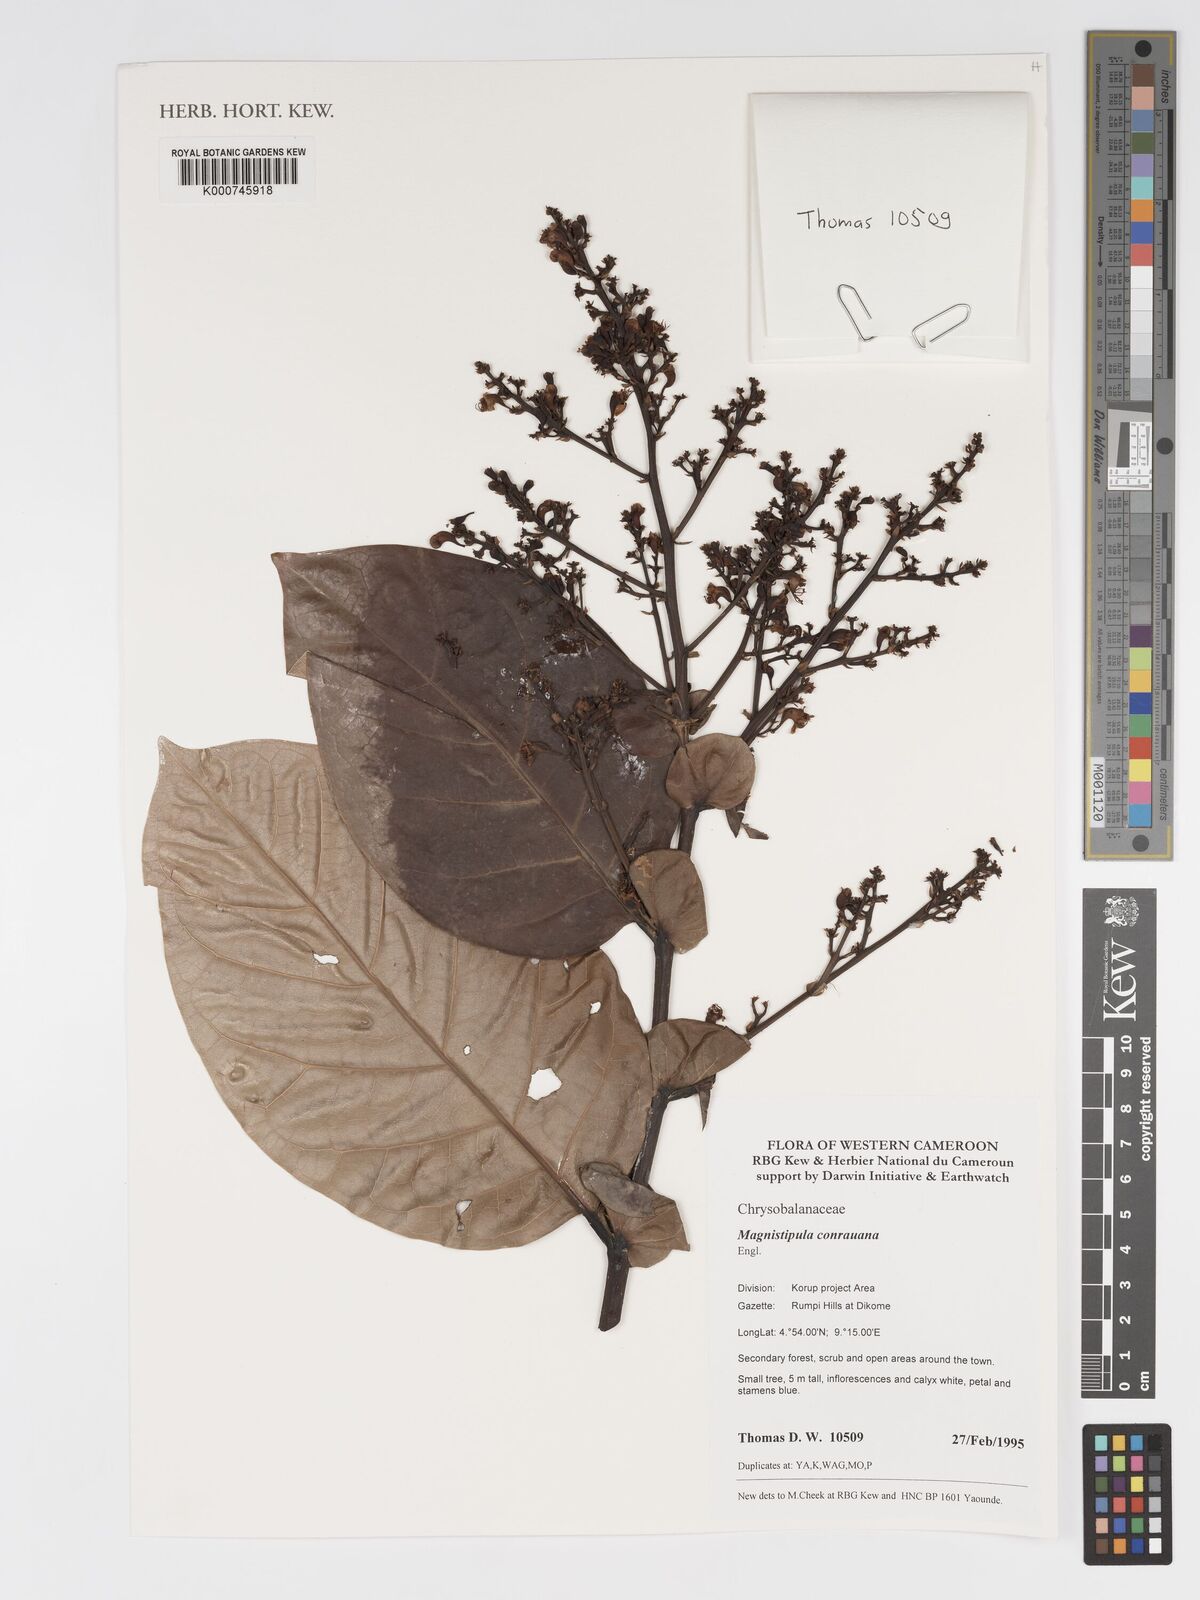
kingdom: Plantae
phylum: Tracheophyta
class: Magnoliopsida
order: Malpighiales
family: Chrysobalanaceae
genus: Magnistipula
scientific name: Magnistipula conrauana
